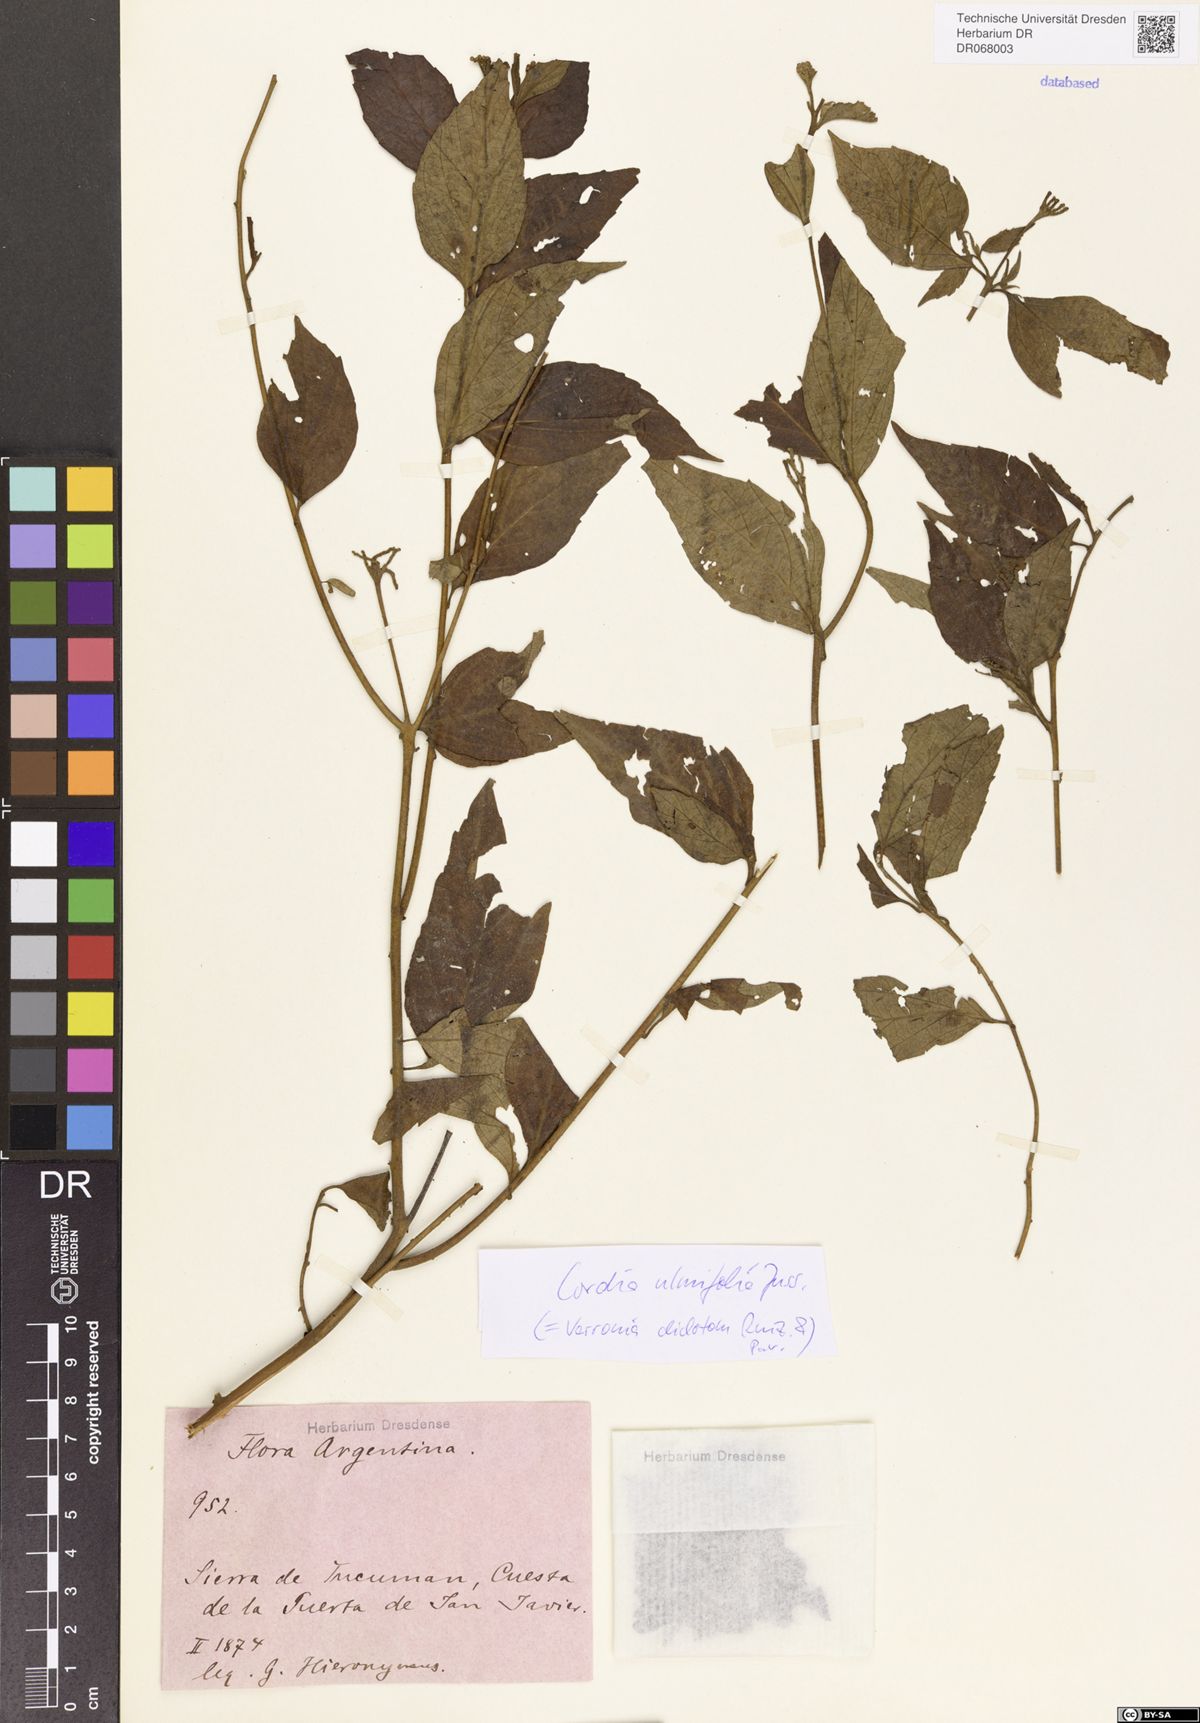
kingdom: Plantae
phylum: Tracheophyta
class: Magnoliopsida
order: Boraginales
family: Cordiaceae
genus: Varronia
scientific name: Varronia dichotoma
